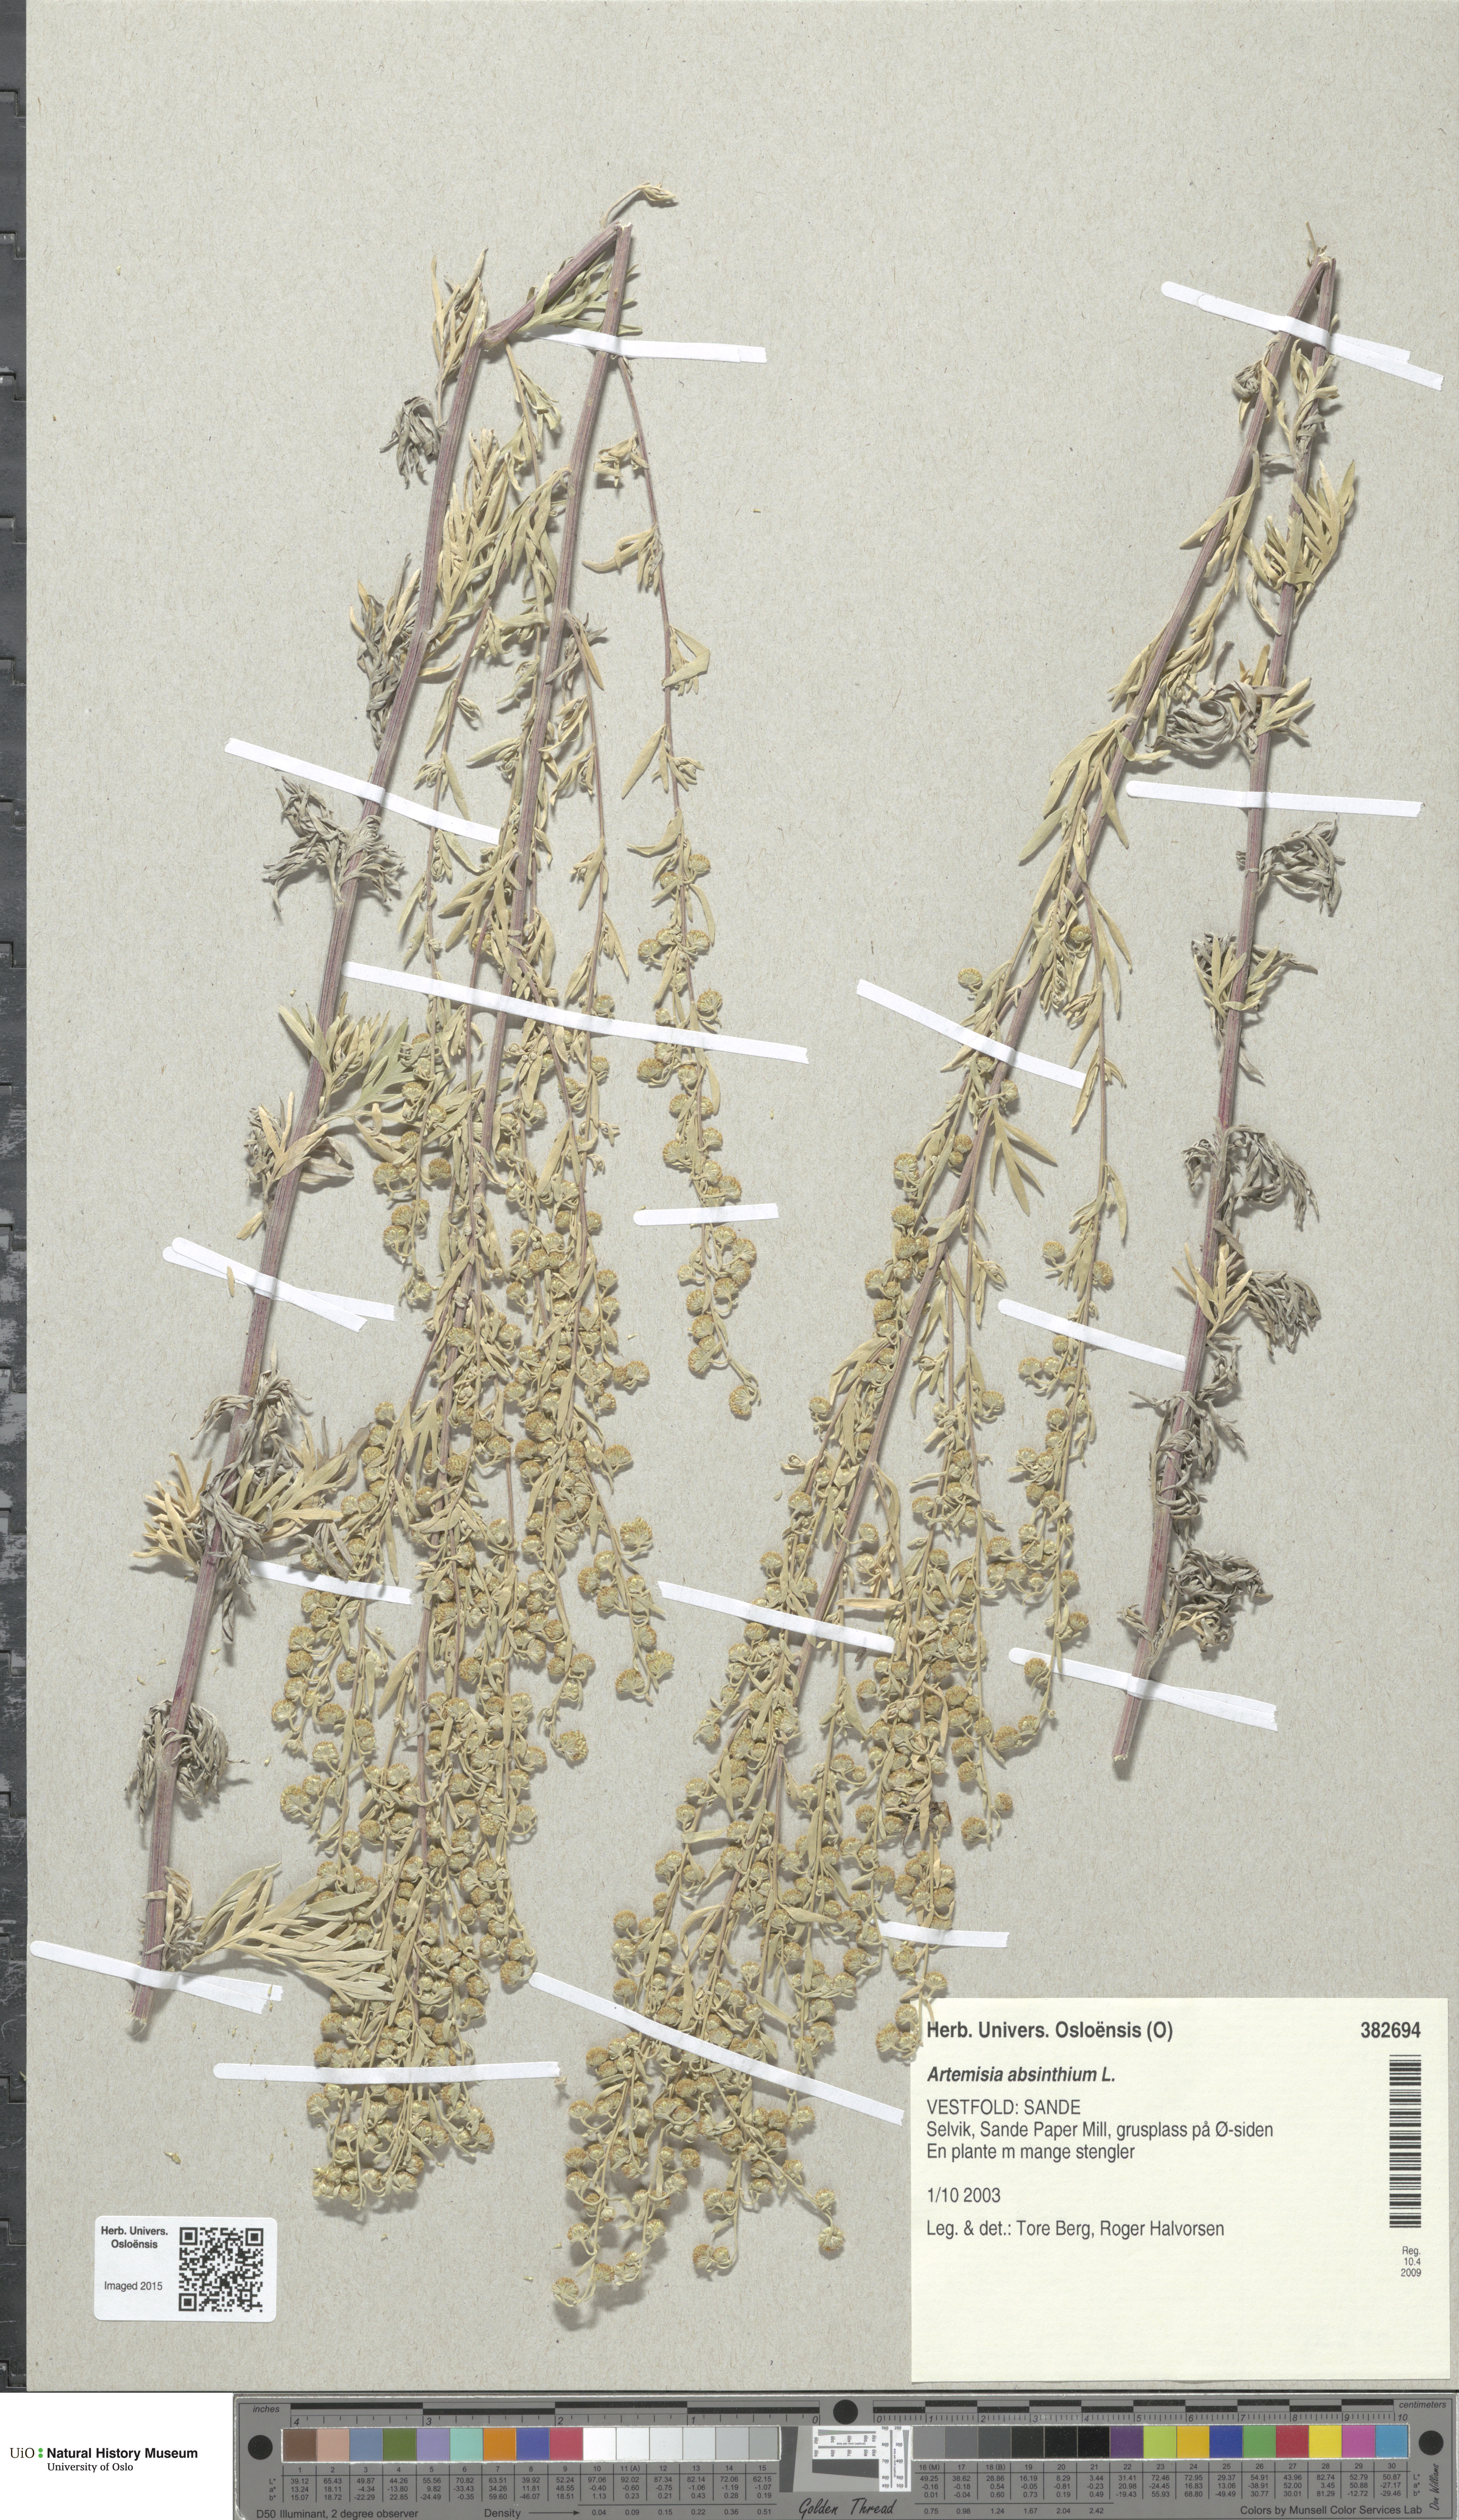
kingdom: Plantae
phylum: Tracheophyta
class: Magnoliopsida
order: Asterales
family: Asteraceae
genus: Artemisia
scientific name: Artemisia absinthium
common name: Wormwood
